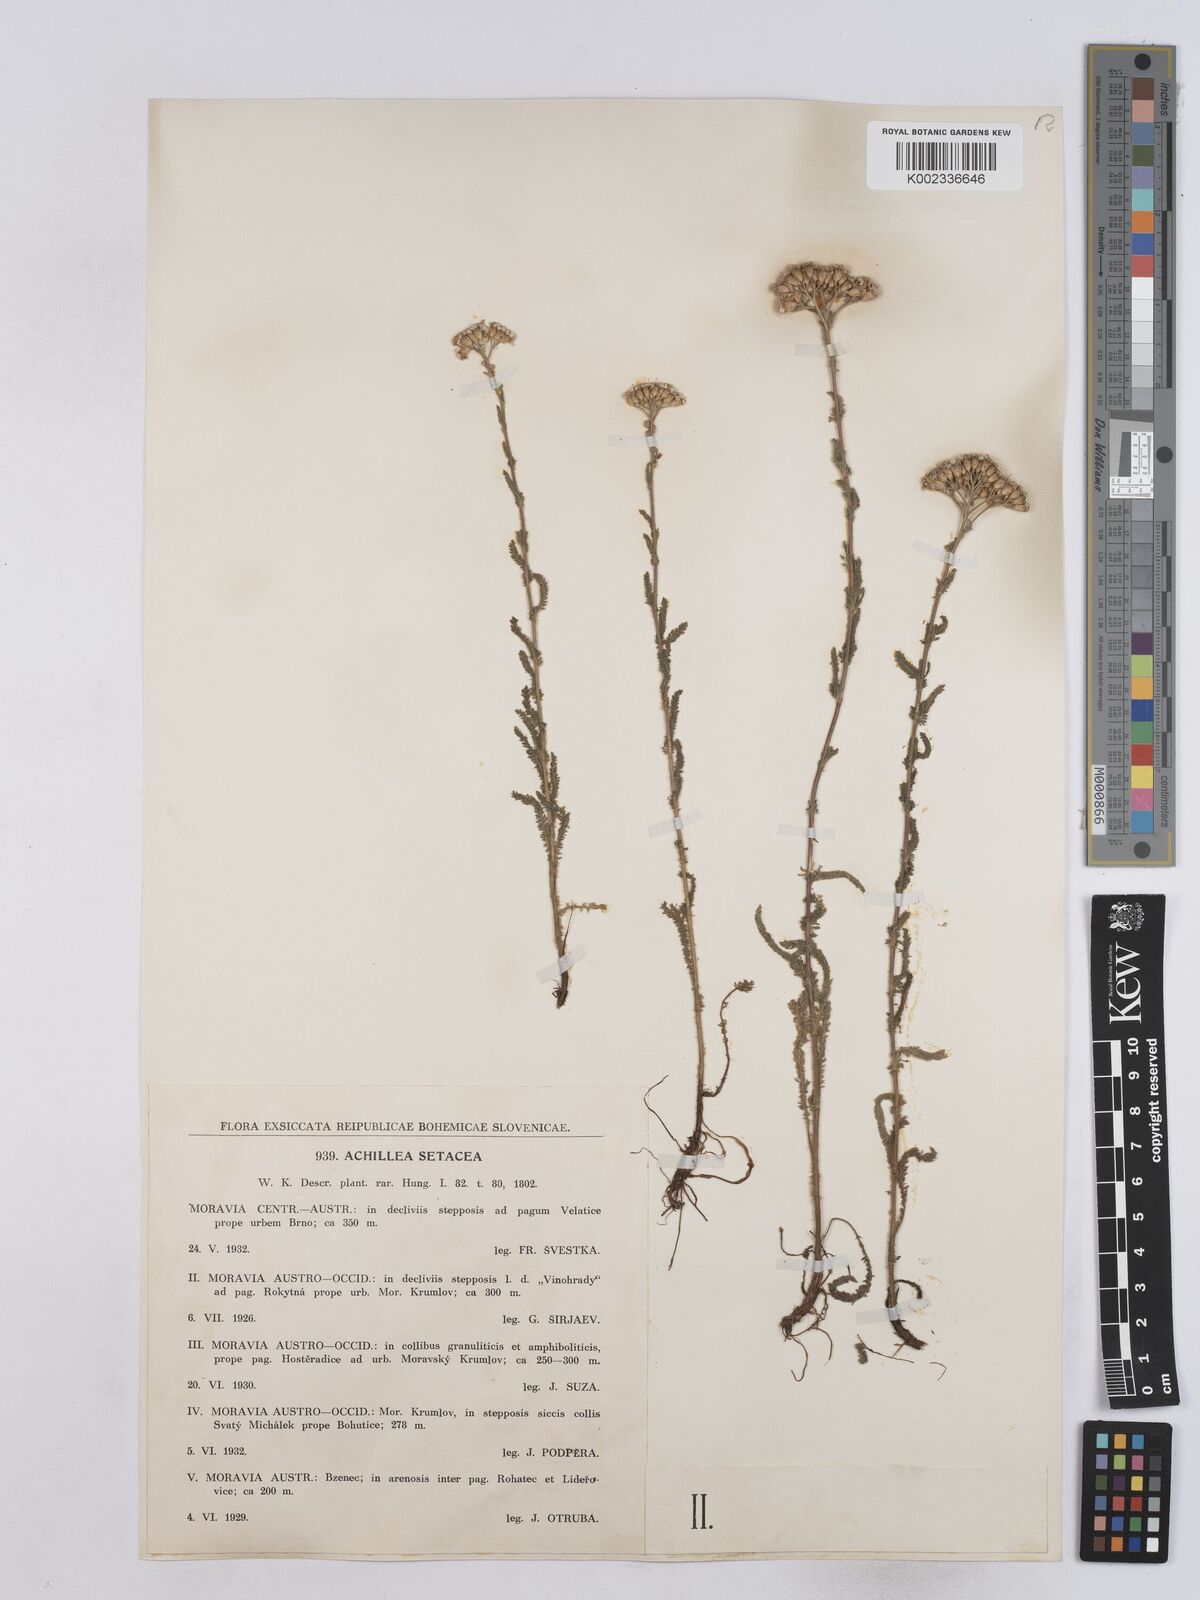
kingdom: Plantae
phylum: Tracheophyta
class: Magnoliopsida
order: Asterales
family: Asteraceae
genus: Achillea
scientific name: Achillea setacea
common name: Bristly yarrow
